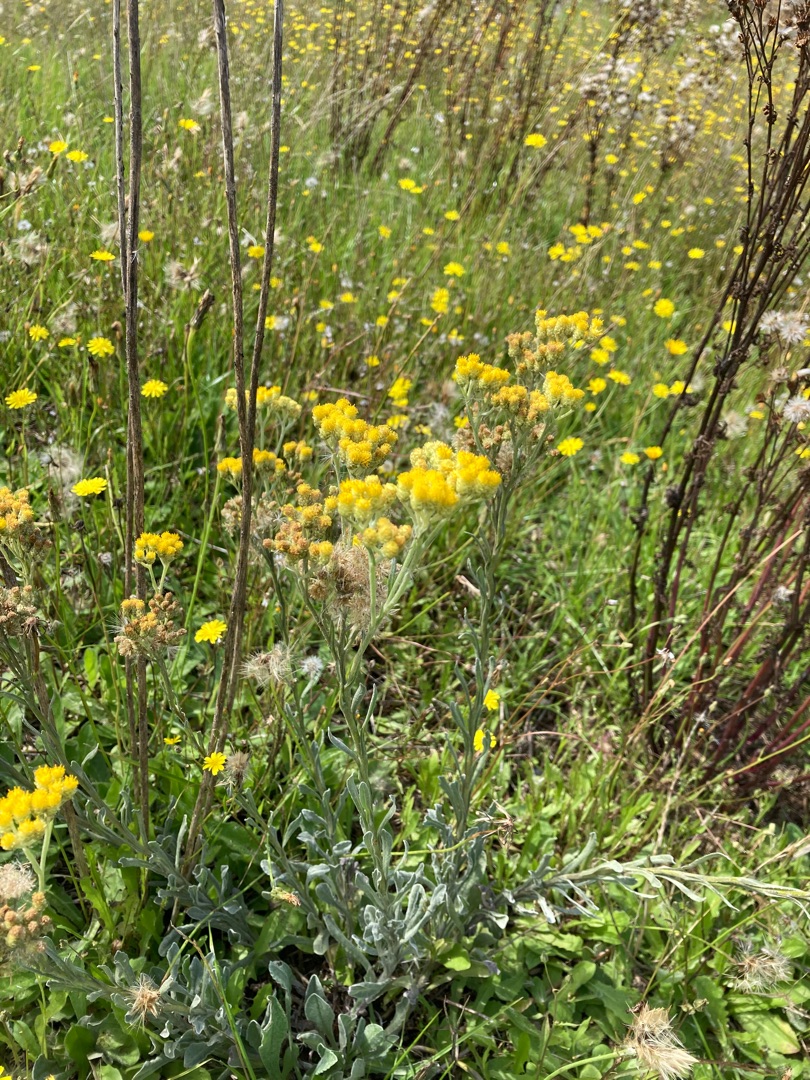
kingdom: Plantae
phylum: Tracheophyta
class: Magnoliopsida
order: Asterales
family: Asteraceae
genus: Helichrysum
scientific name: Helichrysum arenarium
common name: Gul evighedsblomst
